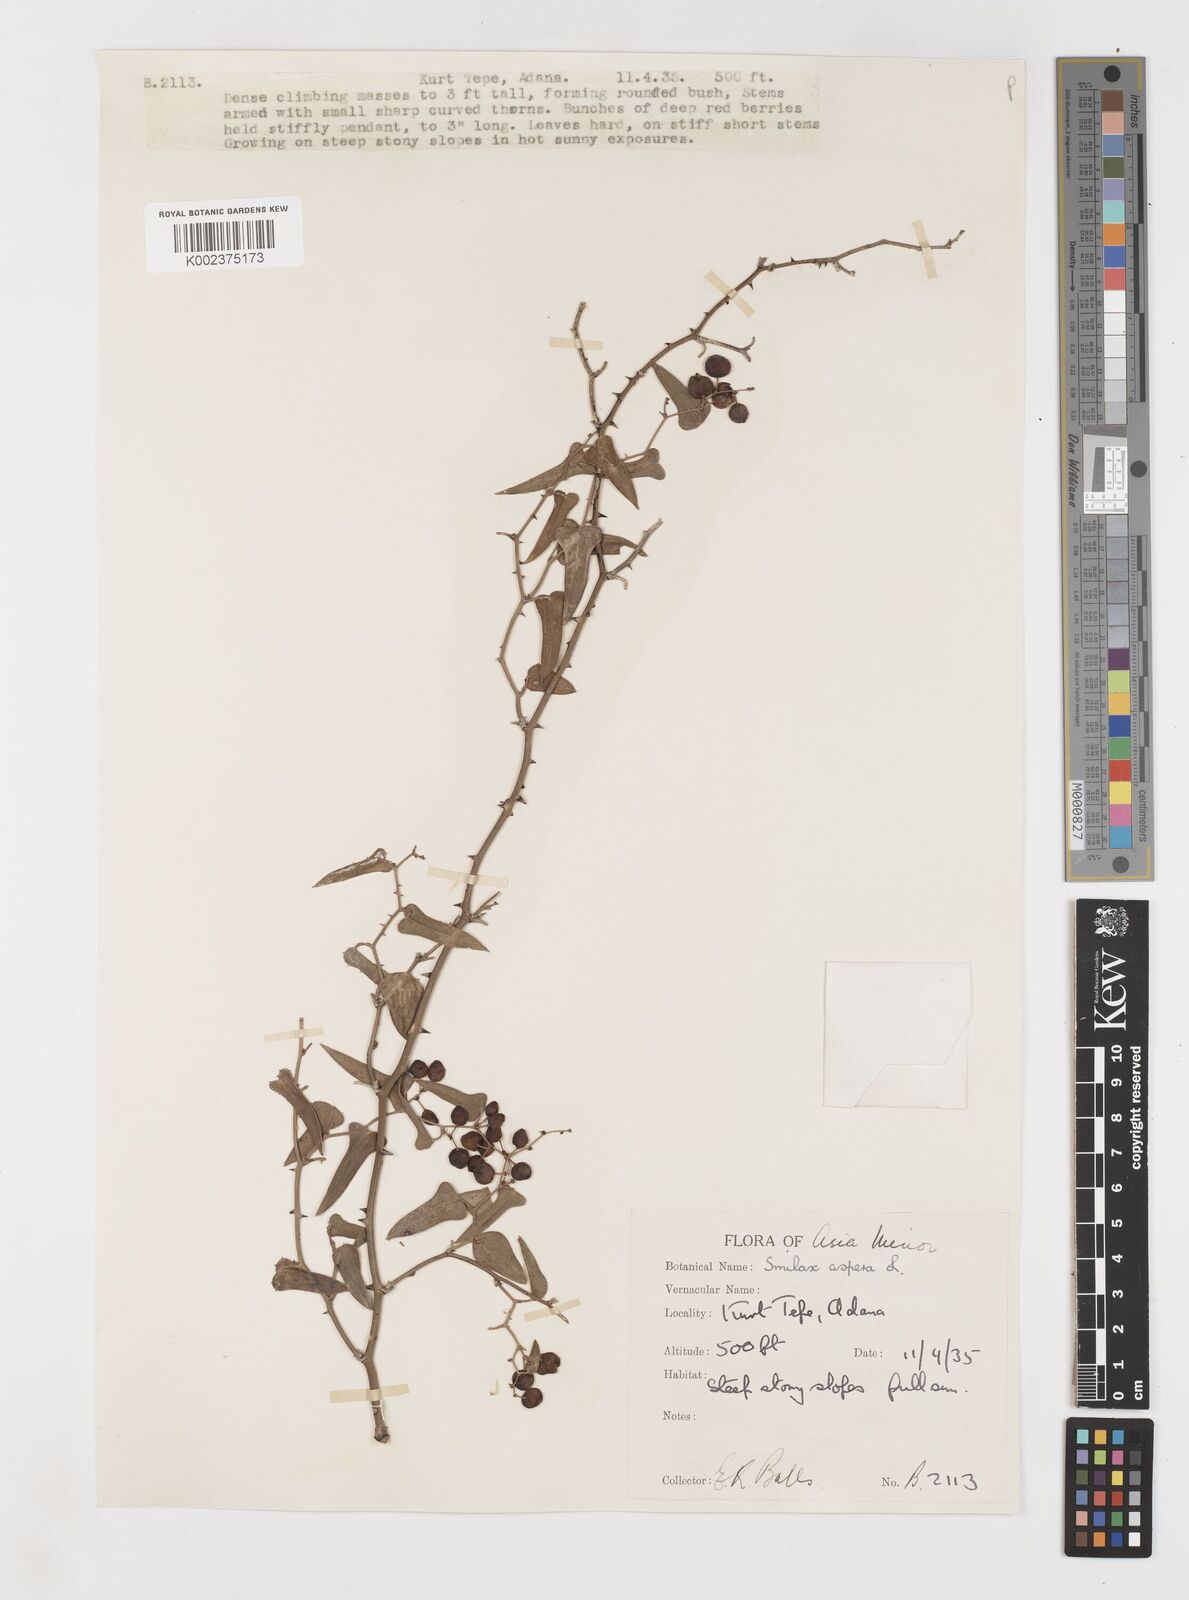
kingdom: Plantae
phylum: Tracheophyta
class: Liliopsida
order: Liliales
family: Smilacaceae
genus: Smilax
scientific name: Smilax aspera
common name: Common smilax
